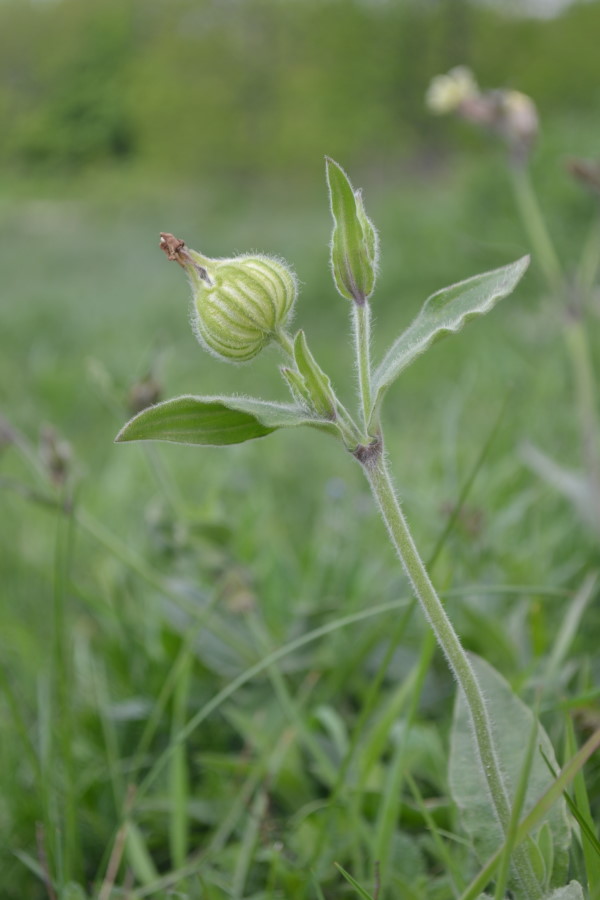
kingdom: Plantae
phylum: Tracheophyta
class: Magnoliopsida
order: Caryophyllales
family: Caryophyllaceae
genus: Silene
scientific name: Silene latifolia
